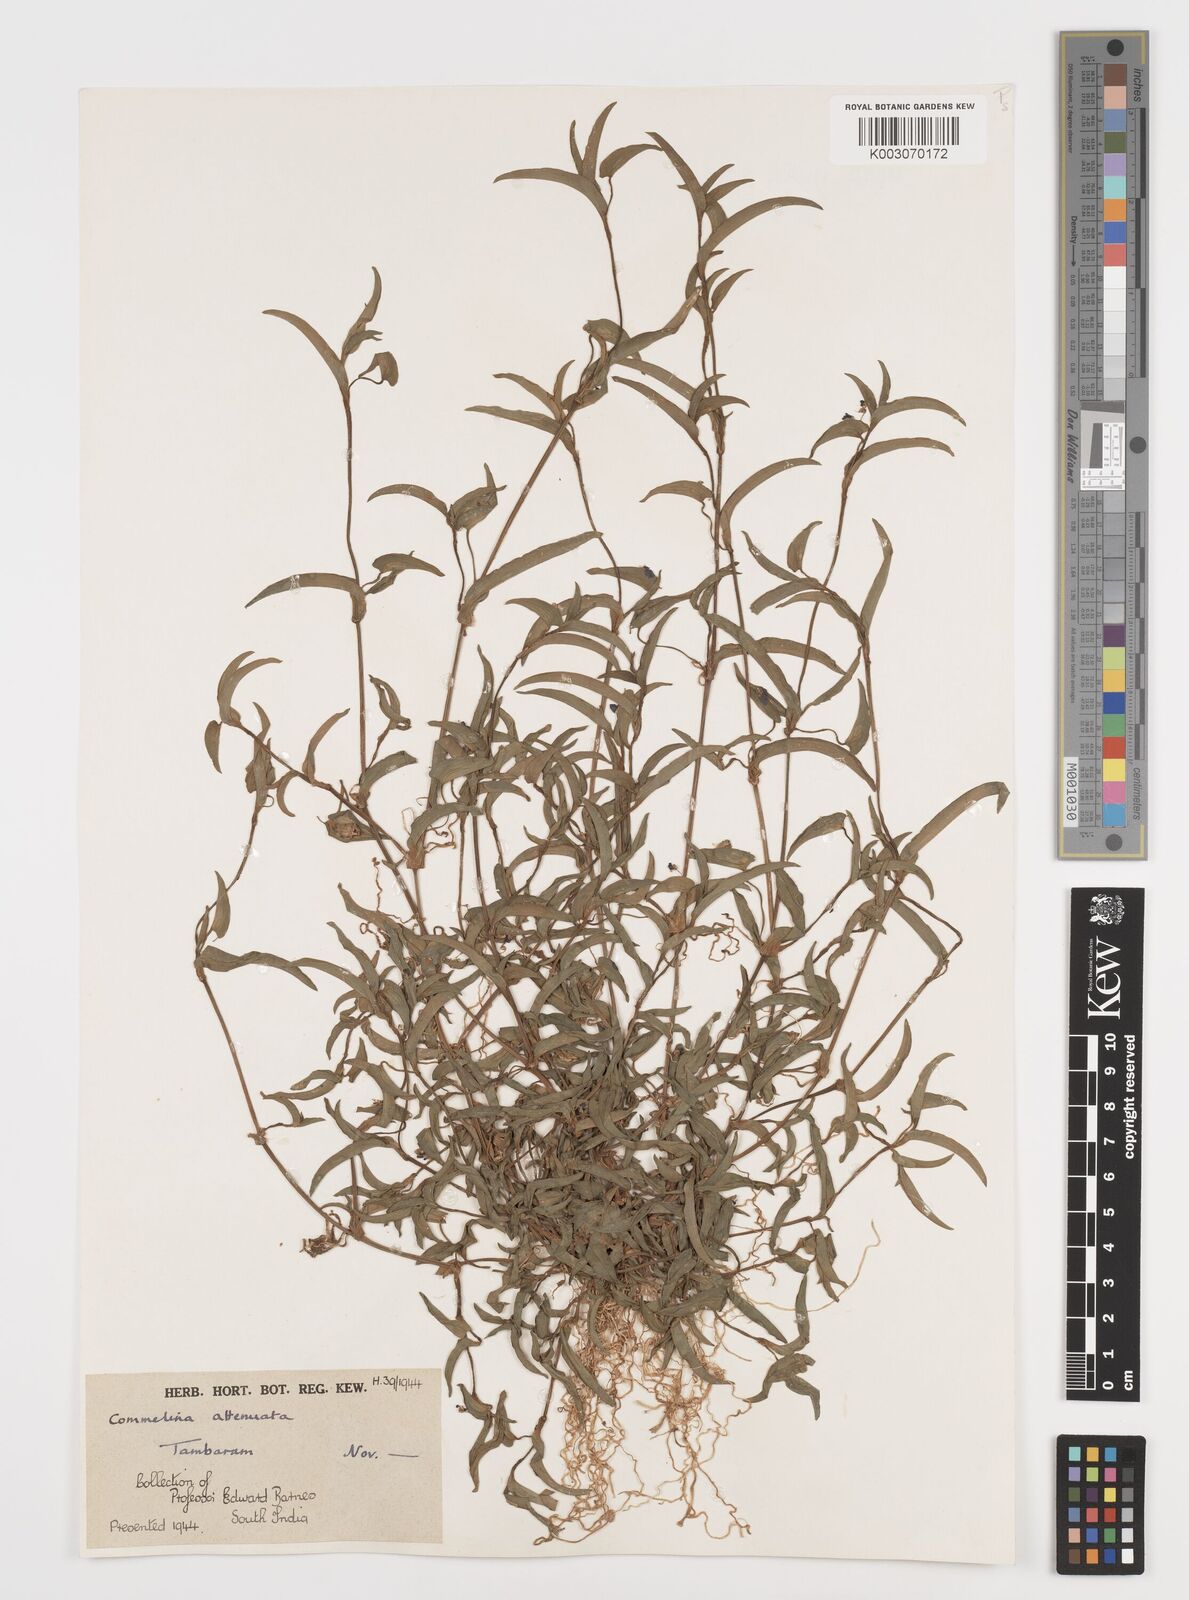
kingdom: Plantae
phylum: Tracheophyta
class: Liliopsida
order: Commelinales
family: Commelinaceae
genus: Commelina
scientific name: Commelina attenuata
